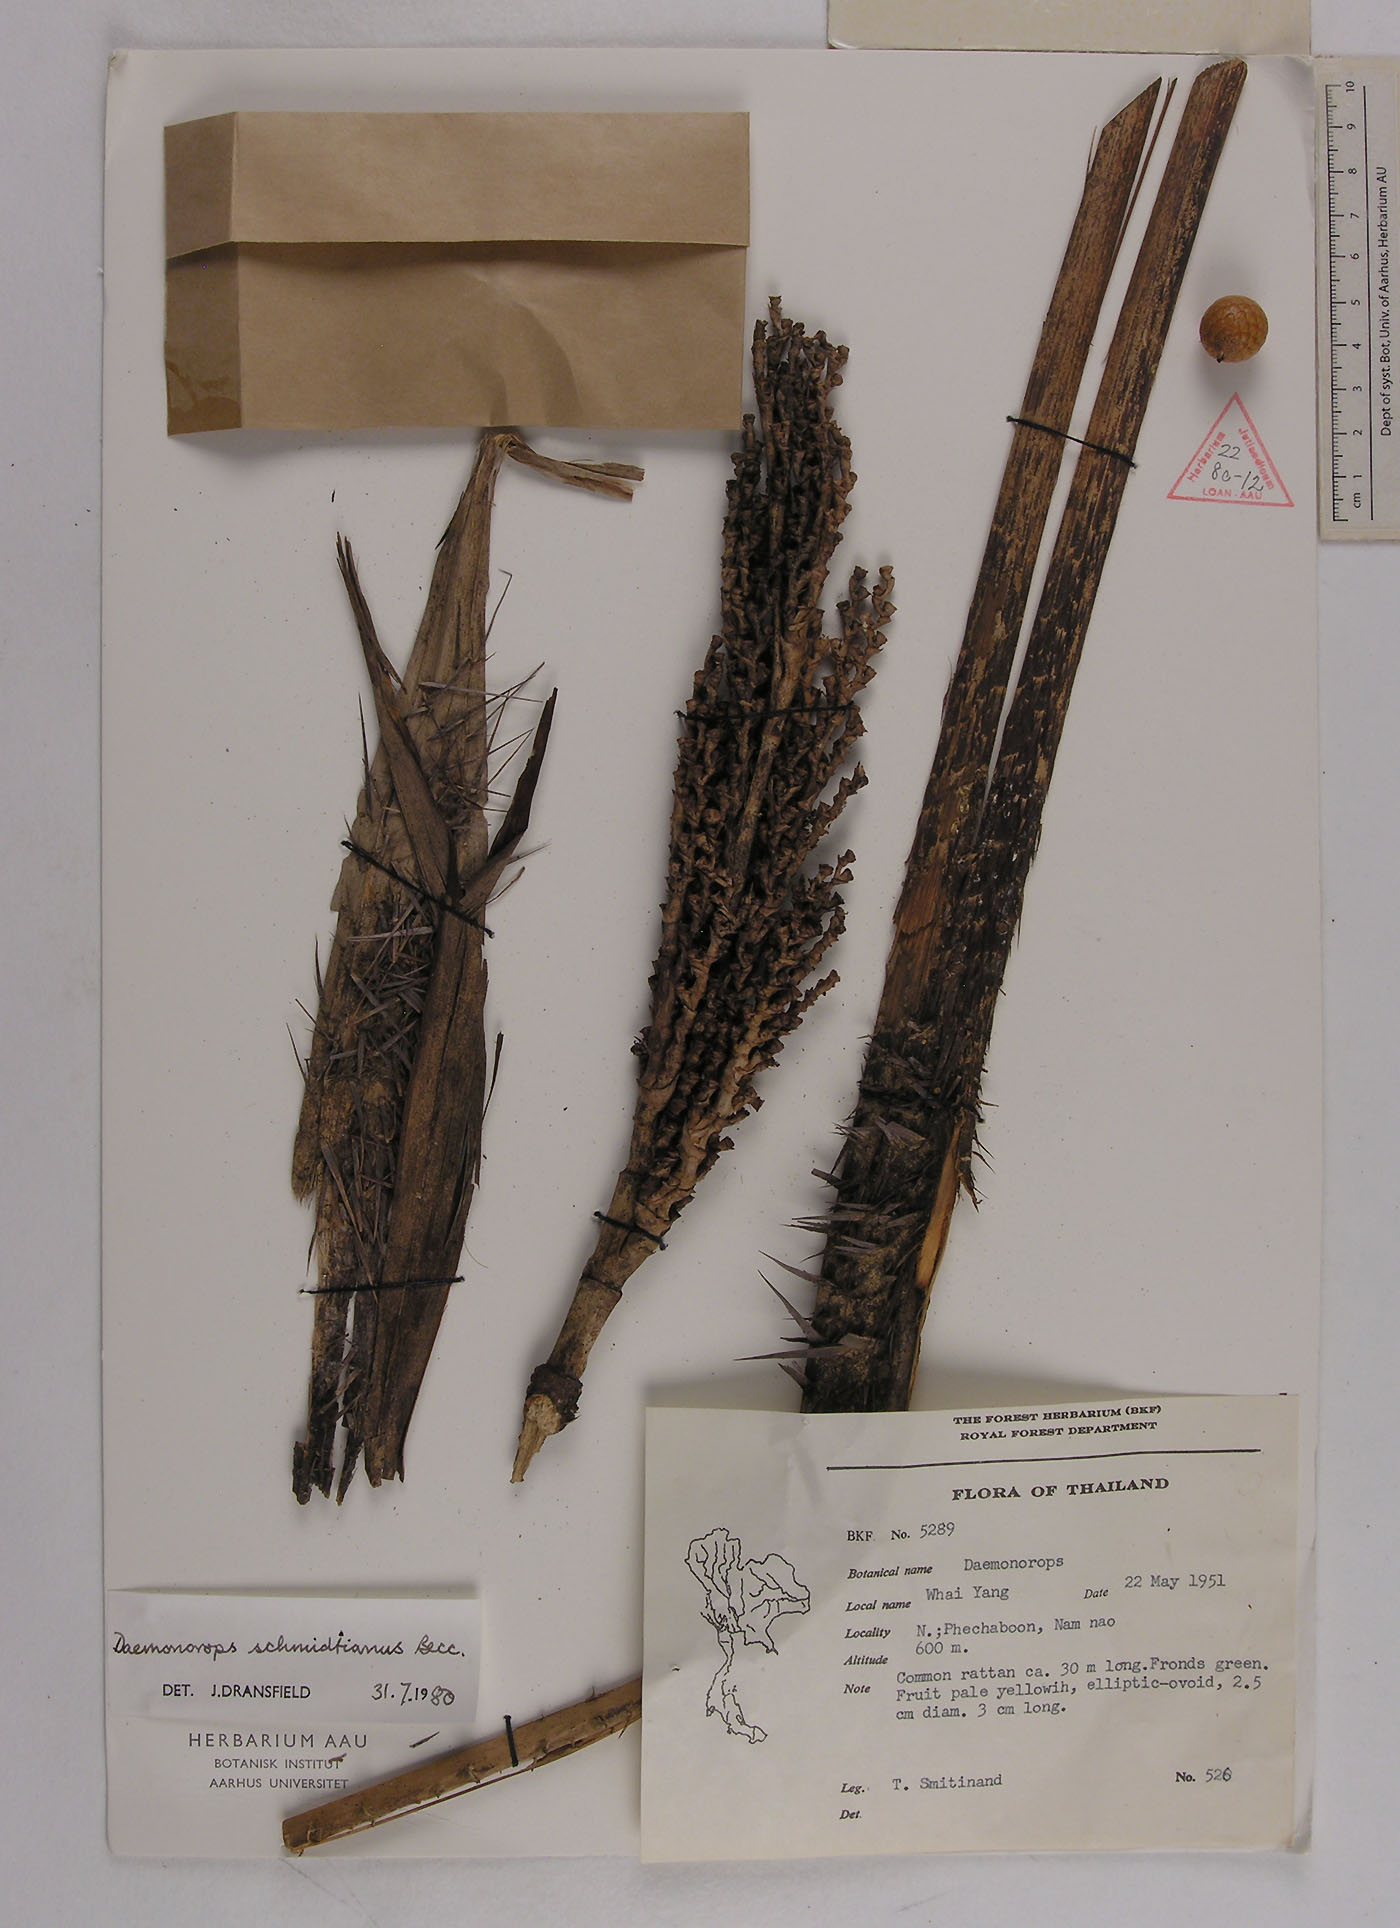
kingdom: Plantae
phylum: Tracheophyta
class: Liliopsida
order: Arecales
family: Arecaceae
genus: Calamus
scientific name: Calamus melanochaetes
